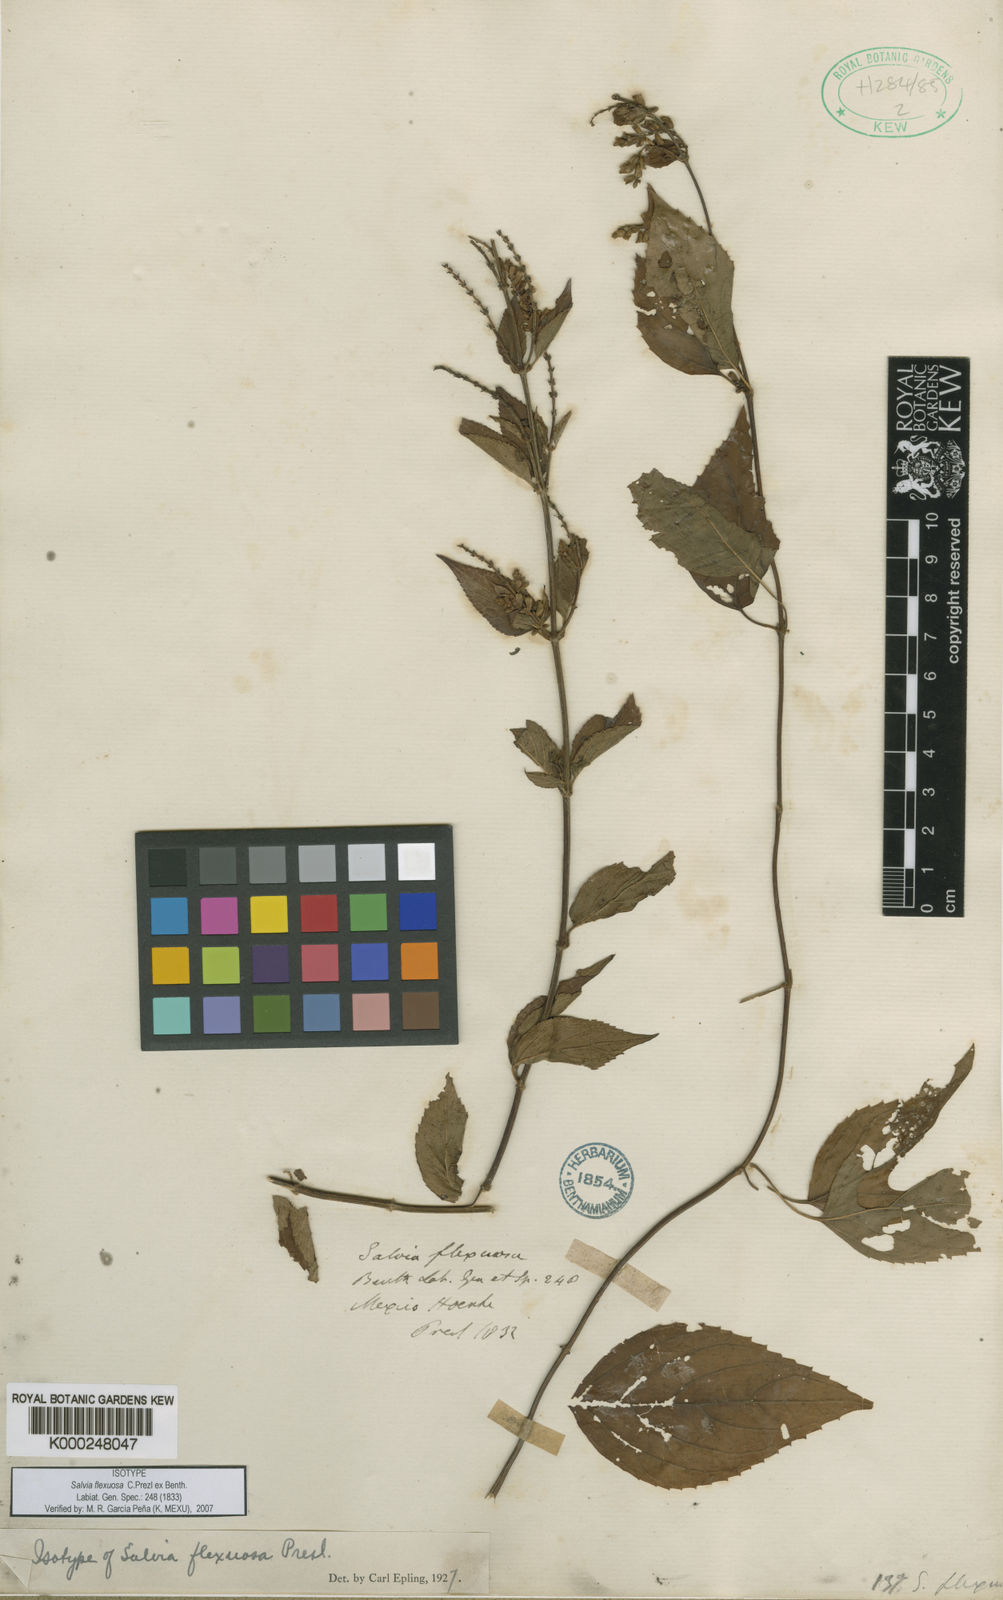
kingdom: Plantae
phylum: Tracheophyta
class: Magnoliopsida
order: Lamiales
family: Lamiaceae
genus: Salvia
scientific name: Salvia polystachia
